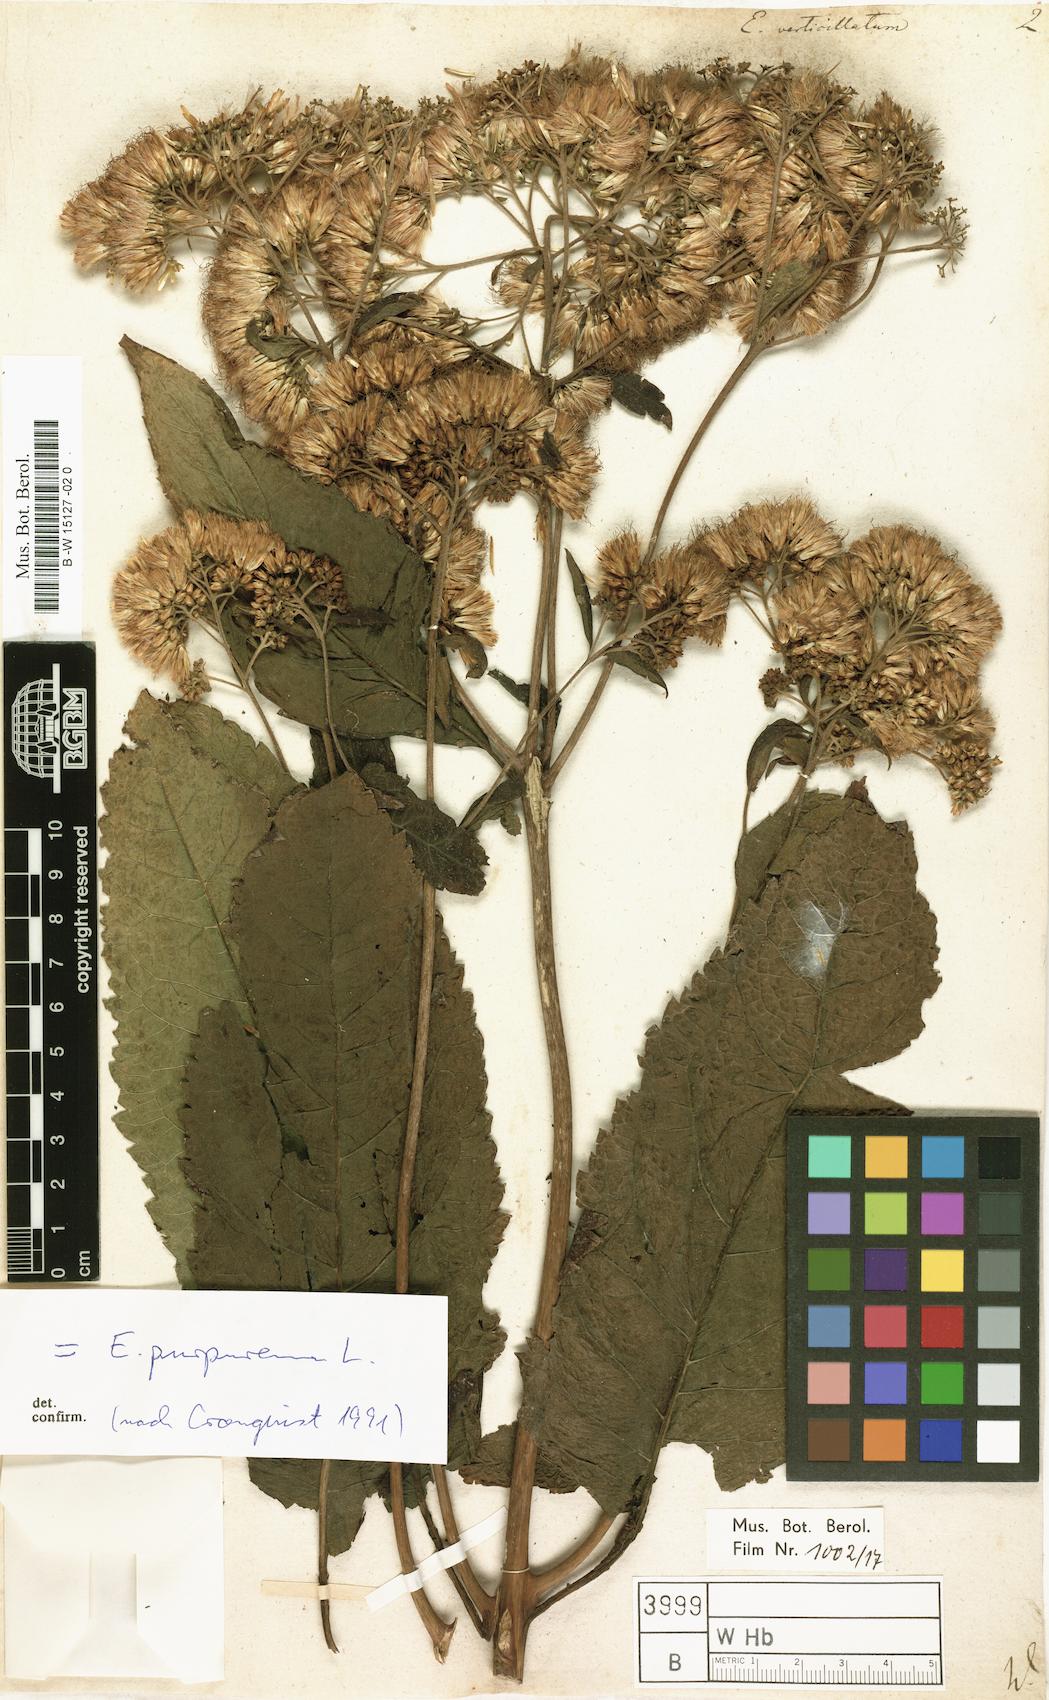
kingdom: Plantae
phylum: Tracheophyta
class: Magnoliopsida
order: Asterales
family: Asteraceae
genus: Eupatorium
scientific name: Eupatorium verticillatum
